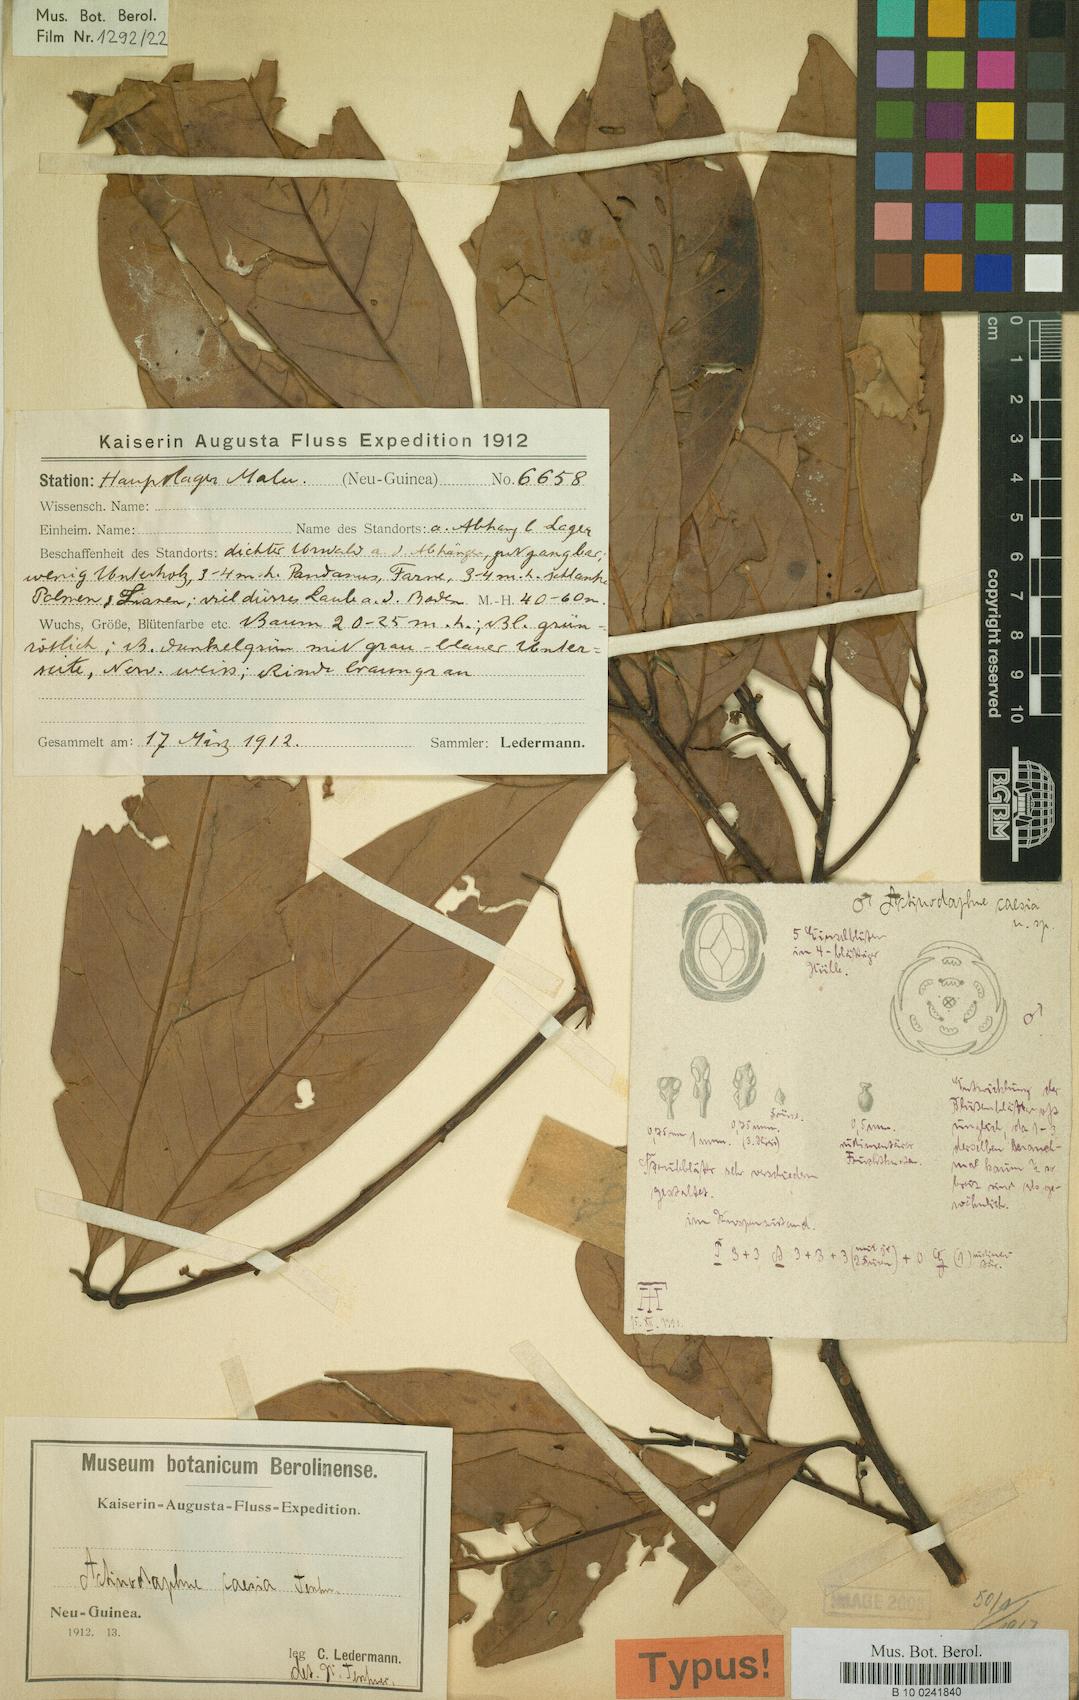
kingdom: Plantae
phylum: Tracheophyta
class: Magnoliopsida
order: Laurales
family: Lauraceae
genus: Litsea
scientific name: Litsea ledermannii
